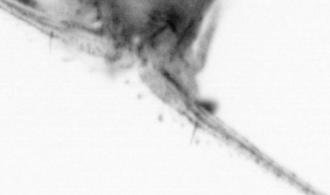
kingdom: Animalia
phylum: Arthropoda
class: Copepoda
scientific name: Copepoda
